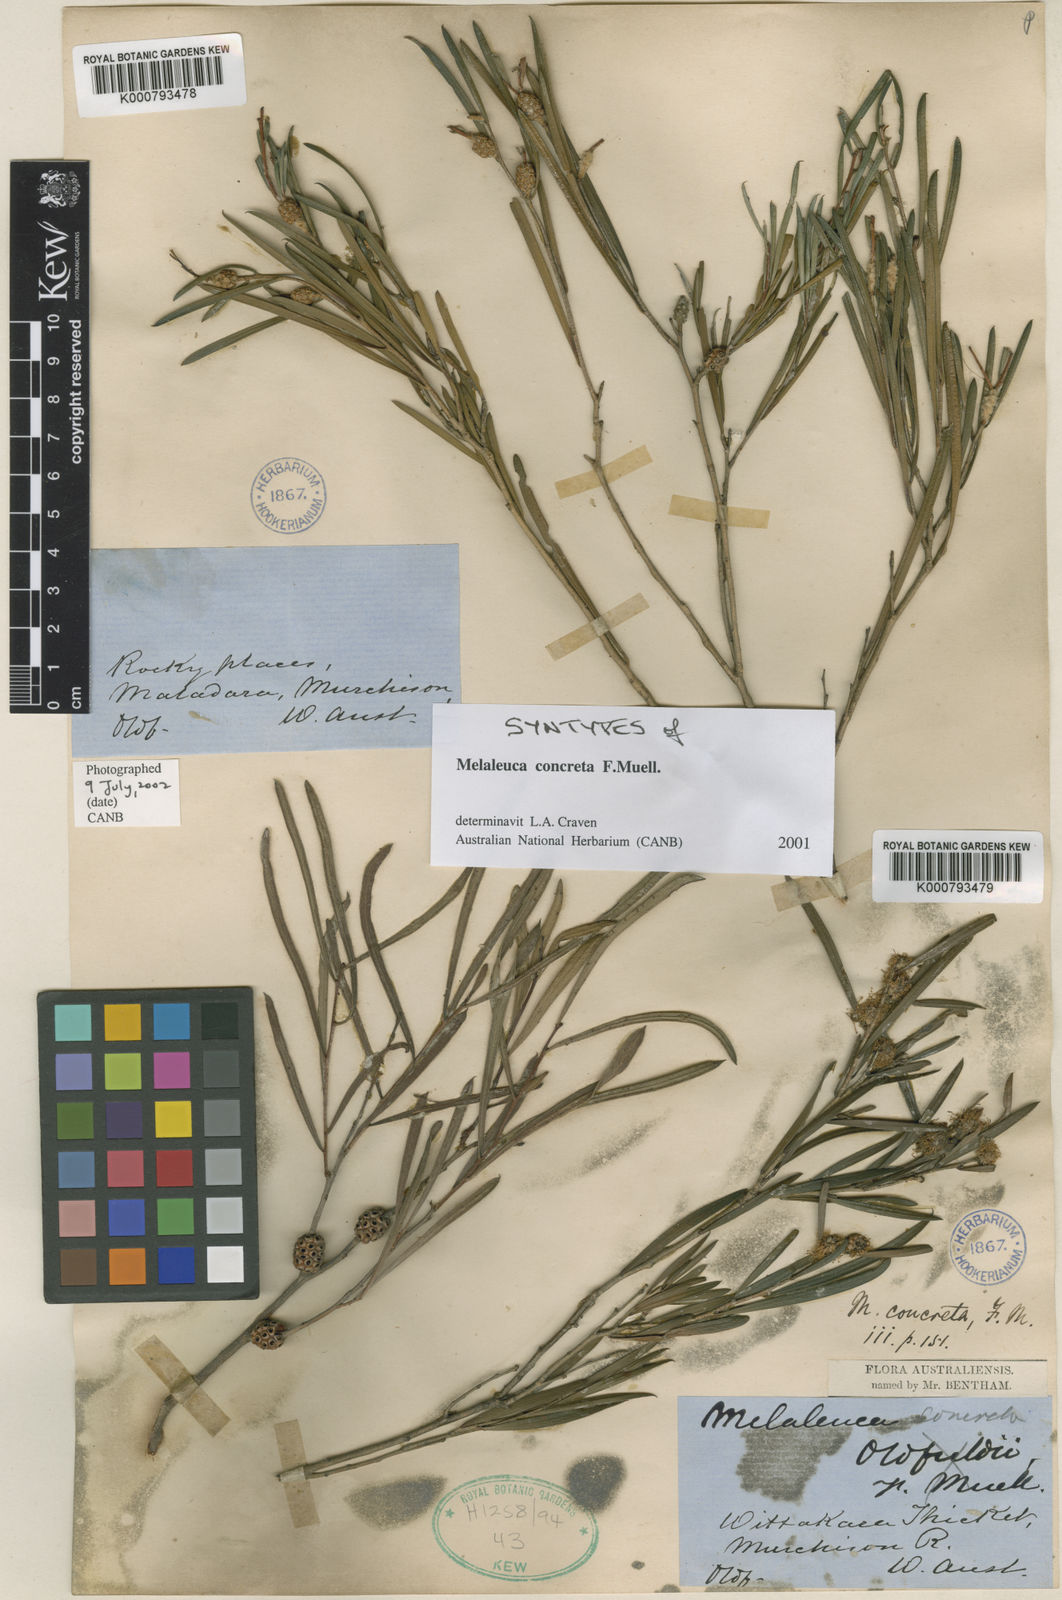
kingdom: Plantae
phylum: Tracheophyta
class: Magnoliopsida
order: Myrtales
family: Myrtaceae
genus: Melaleuca
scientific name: Melaleuca concreta
